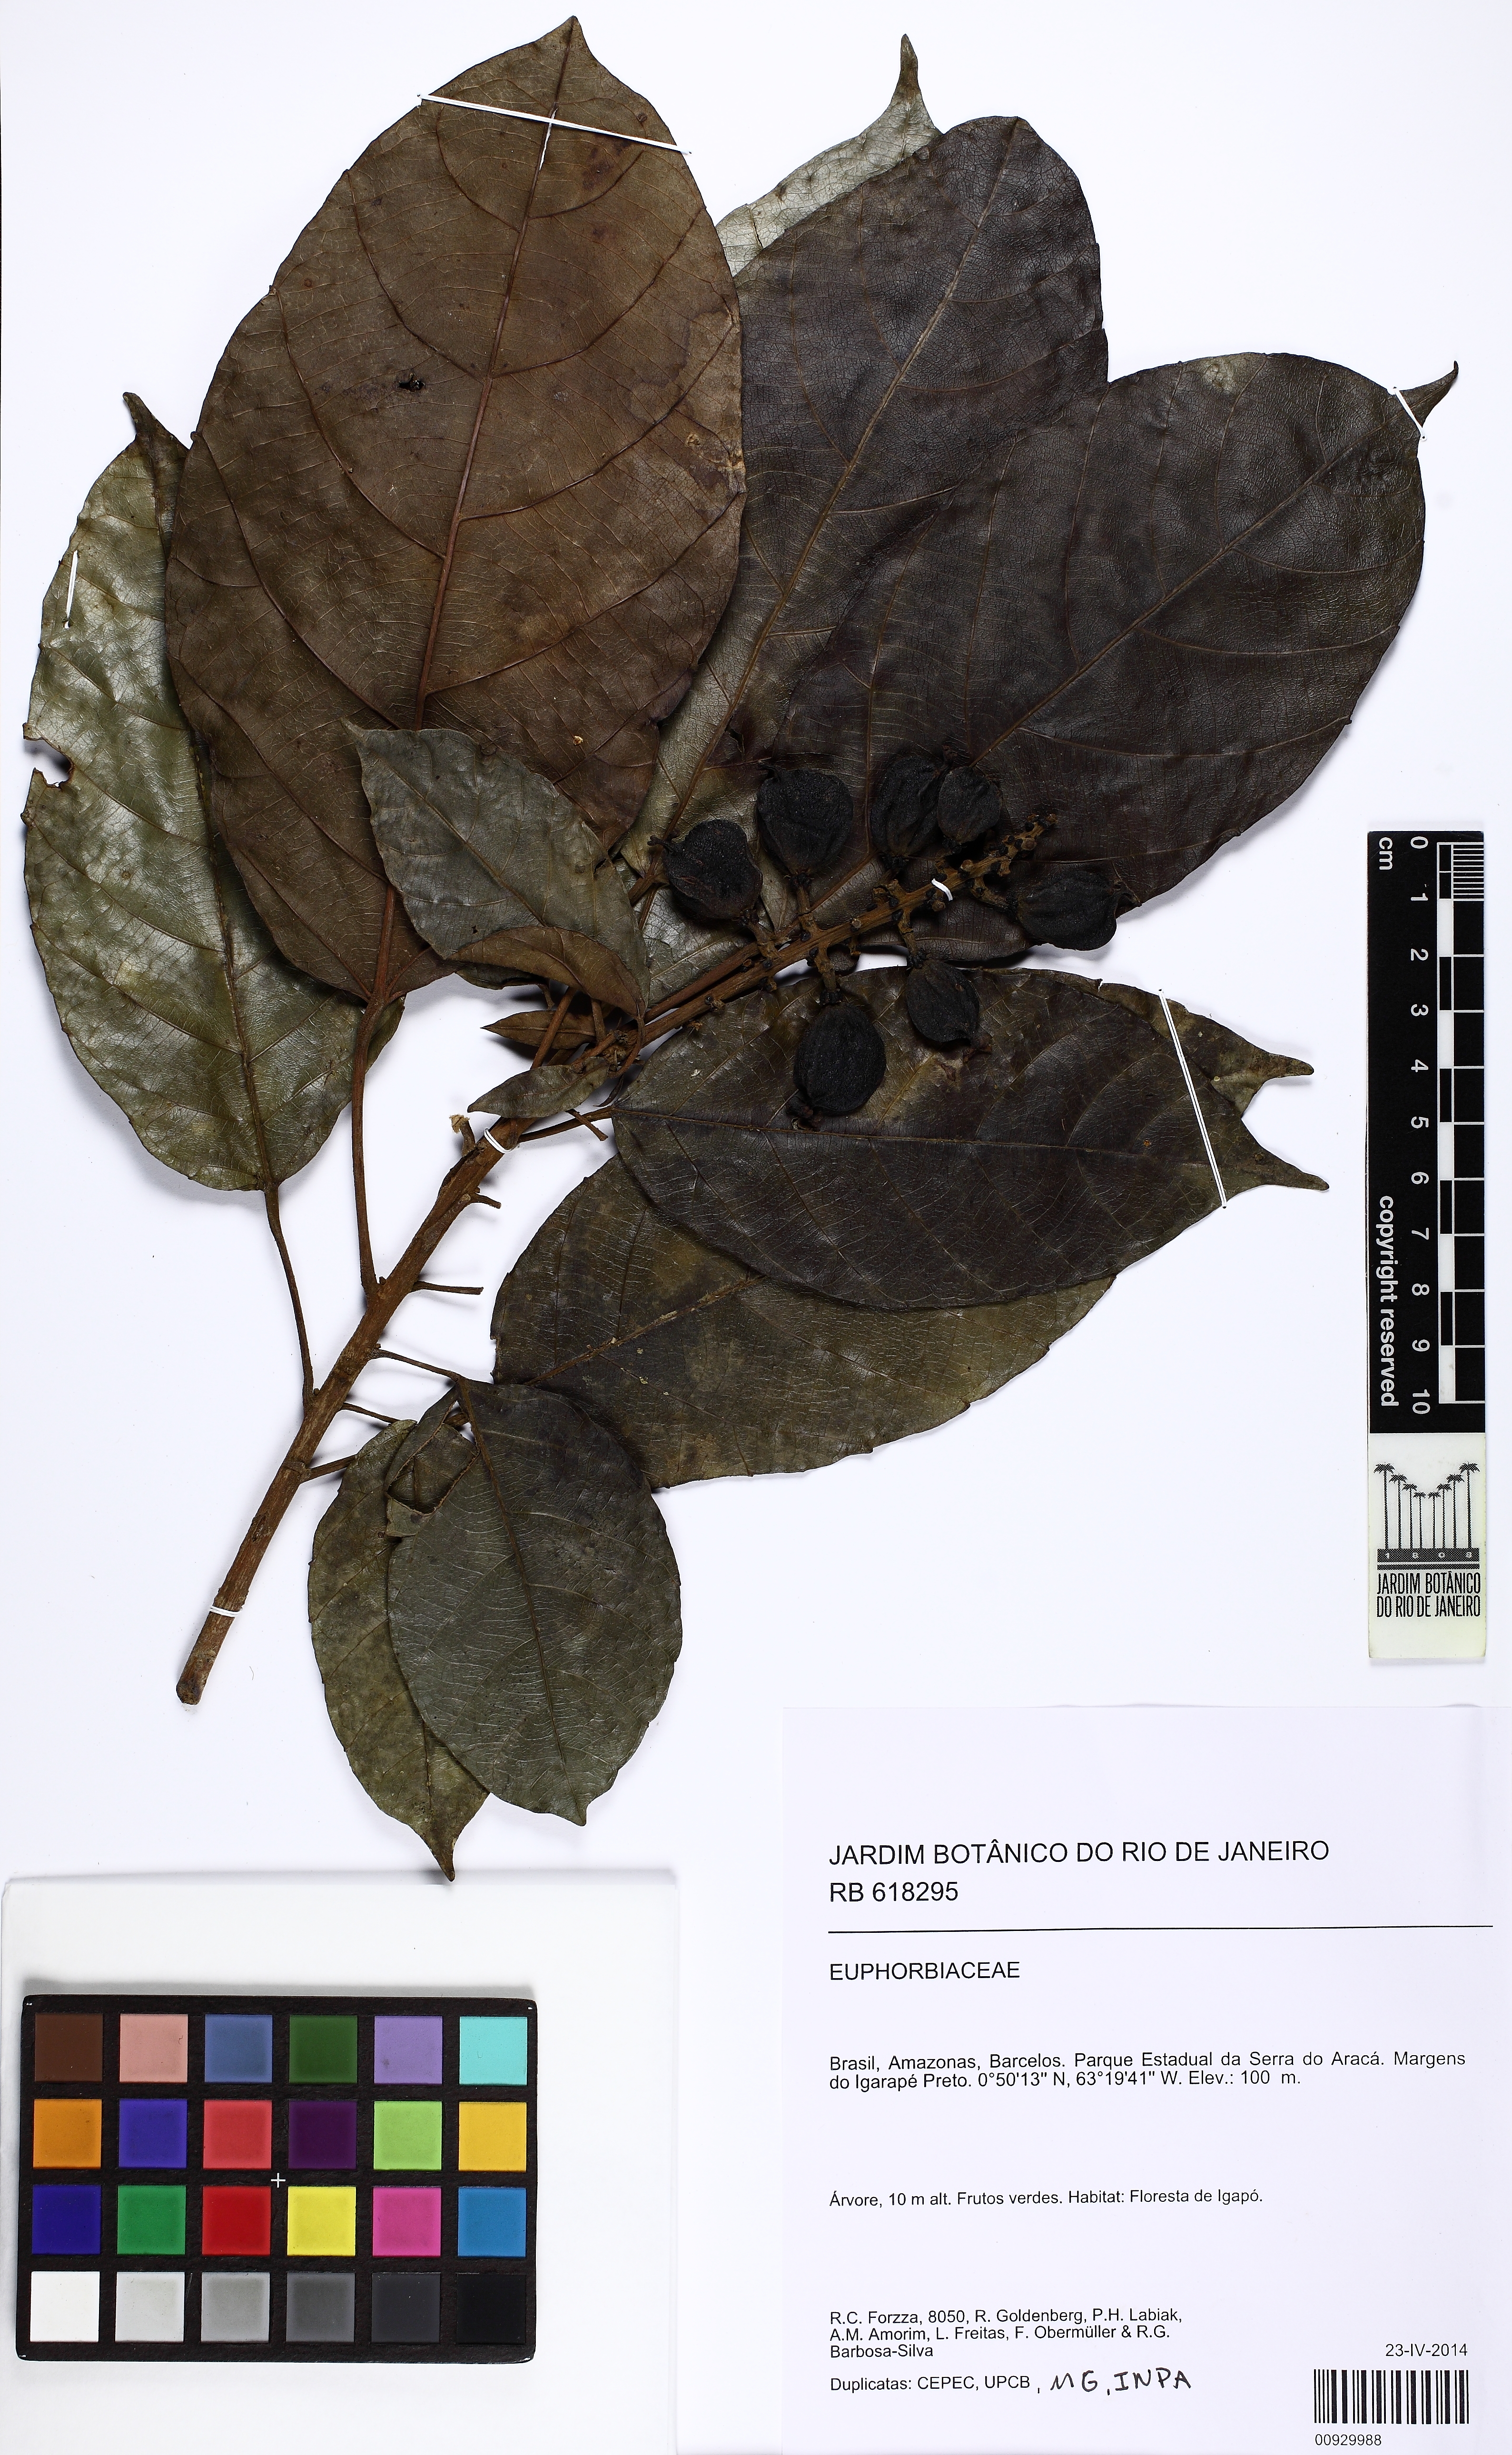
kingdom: Plantae
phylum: Tracheophyta
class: Magnoliopsida
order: Malpighiales
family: Euphorbiaceae
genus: Conceveiba
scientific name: Conceveiba guianensis
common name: Poatoru
